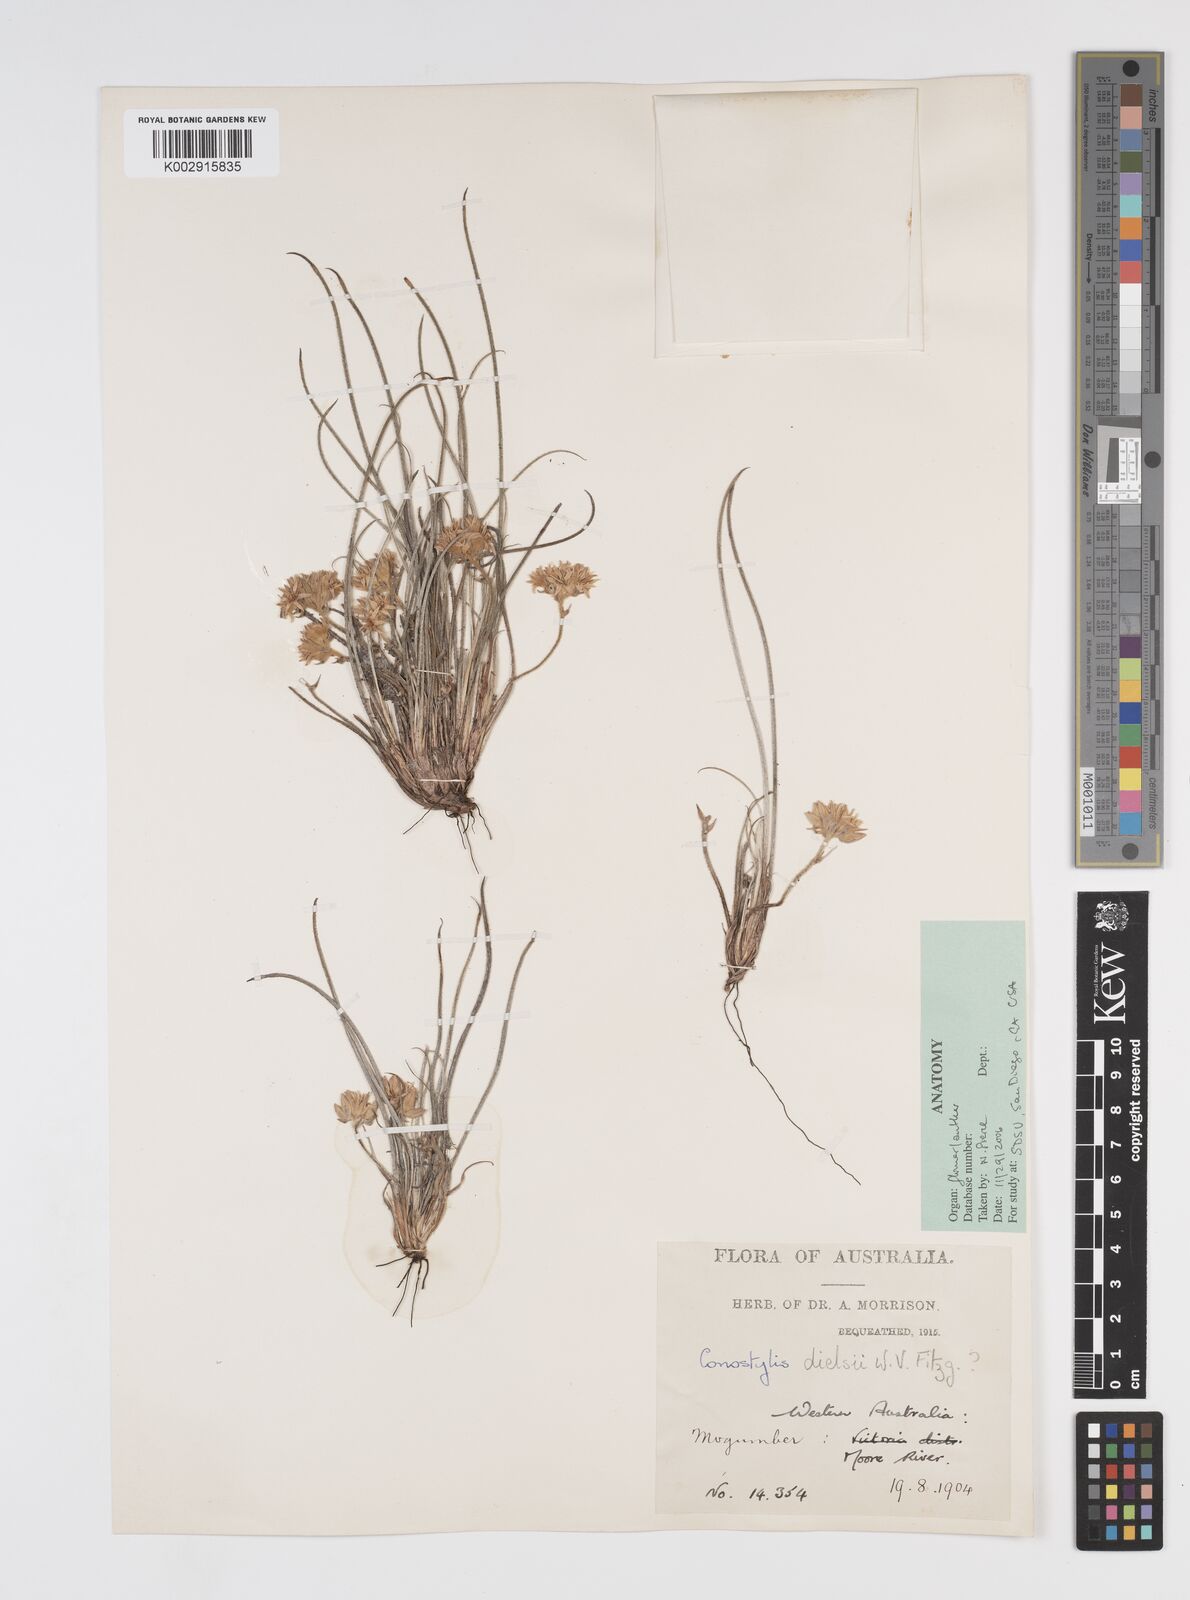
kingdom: Plantae
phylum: Tracheophyta
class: Liliopsida
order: Commelinales
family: Haemodoraceae
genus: Conostylis
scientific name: Conostylis dielsii
